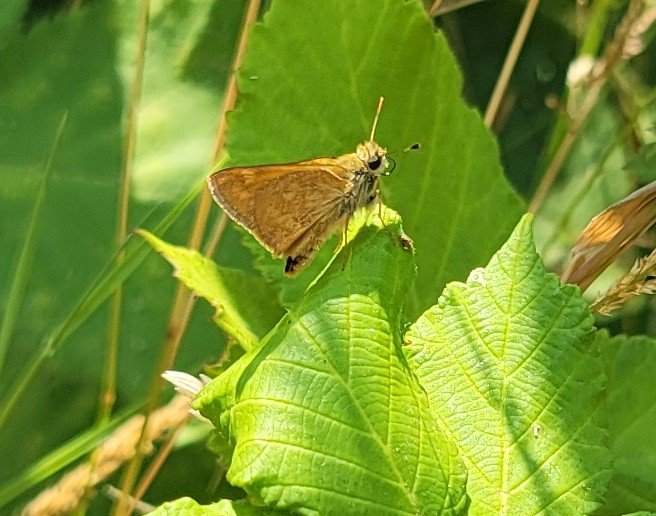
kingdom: Animalia
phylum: Arthropoda
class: Insecta
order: Lepidoptera
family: Hesperiidae
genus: Ochlodes
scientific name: Ochlodes sylvanoides
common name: Woodland Skipper
